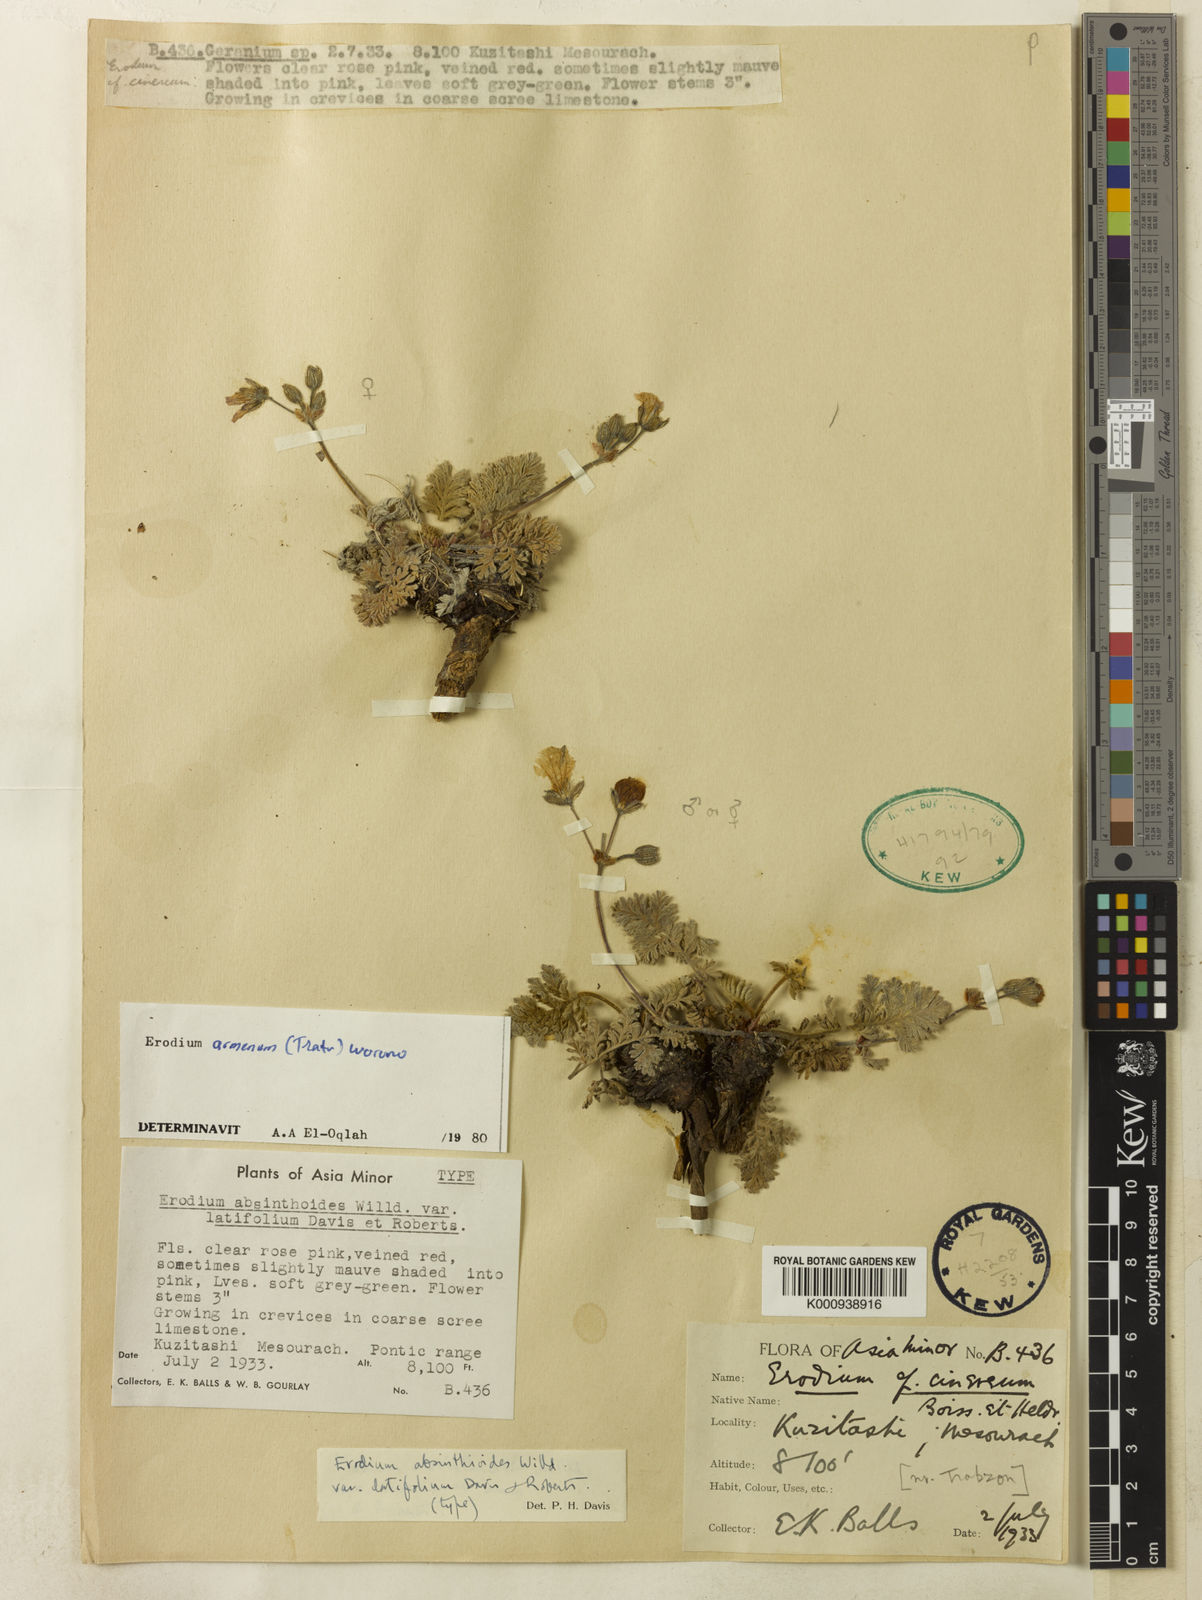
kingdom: Plantae
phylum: Tracheophyta
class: Magnoliopsida
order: Geraniales
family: Geraniaceae
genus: Erodium
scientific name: Erodium absinthoides
